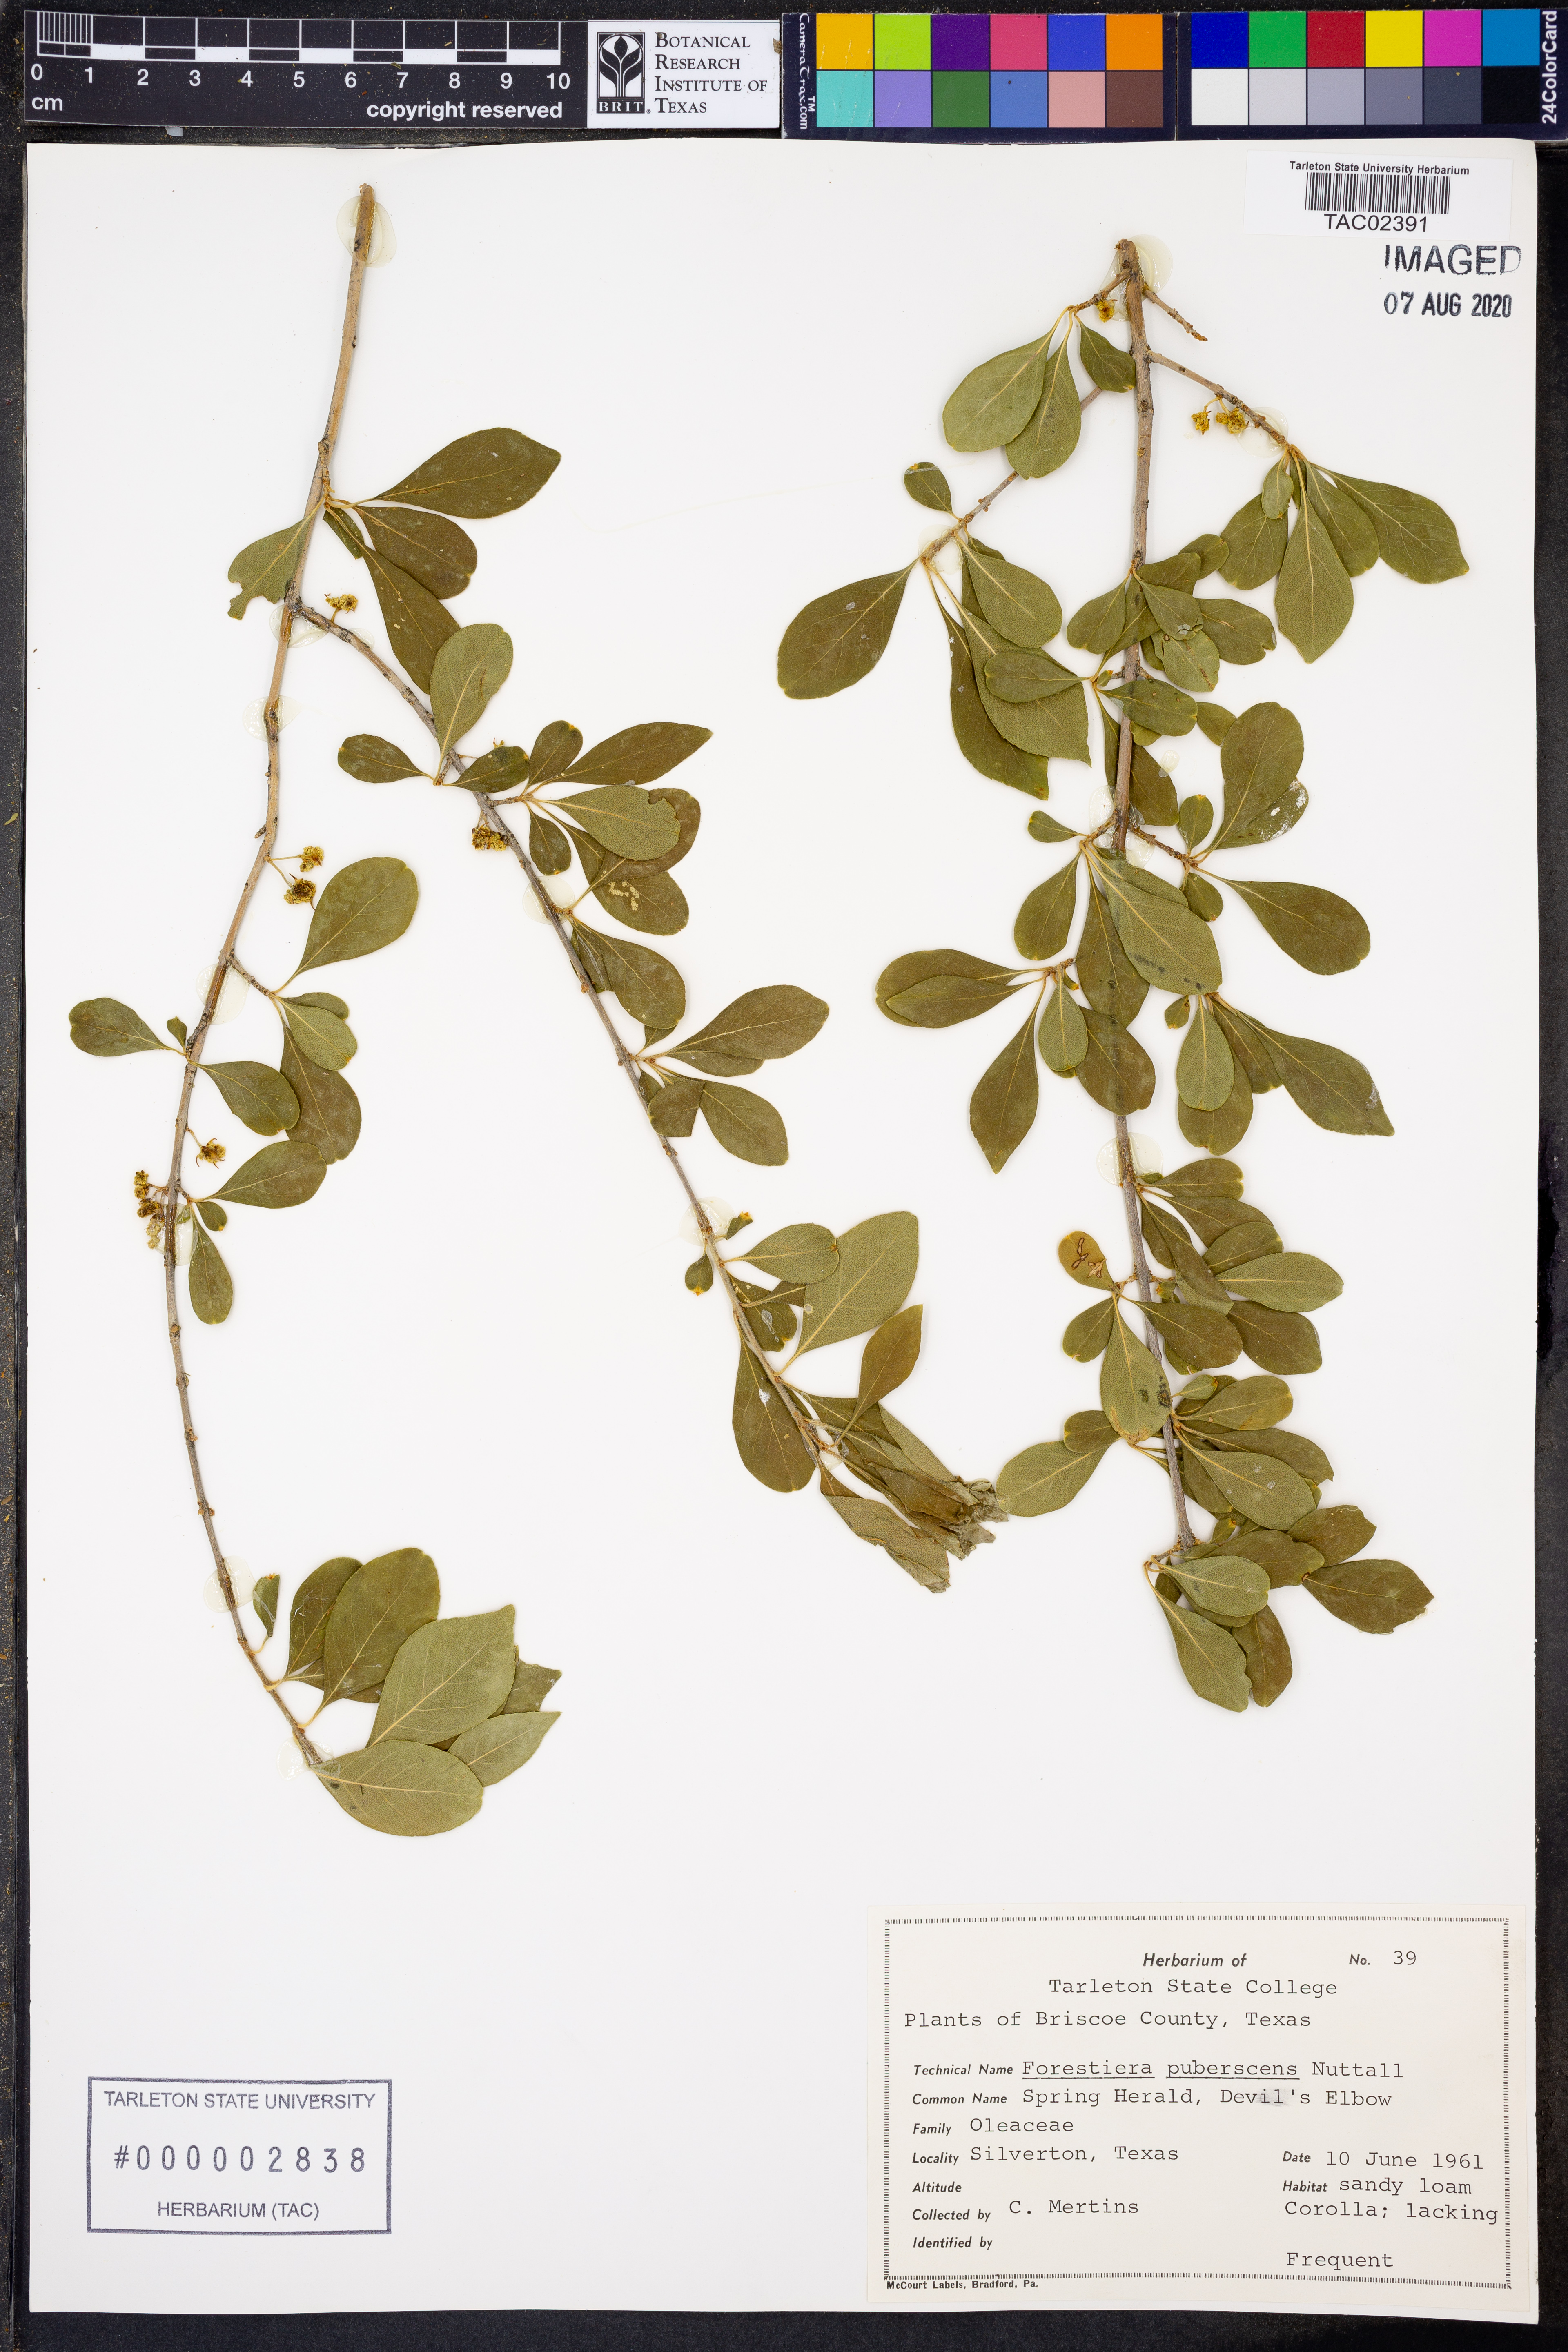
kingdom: Plantae
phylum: Tracheophyta
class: Magnoliopsida
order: Lamiales
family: Oleaceae
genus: Forestiera
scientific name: Forestiera pubescens
